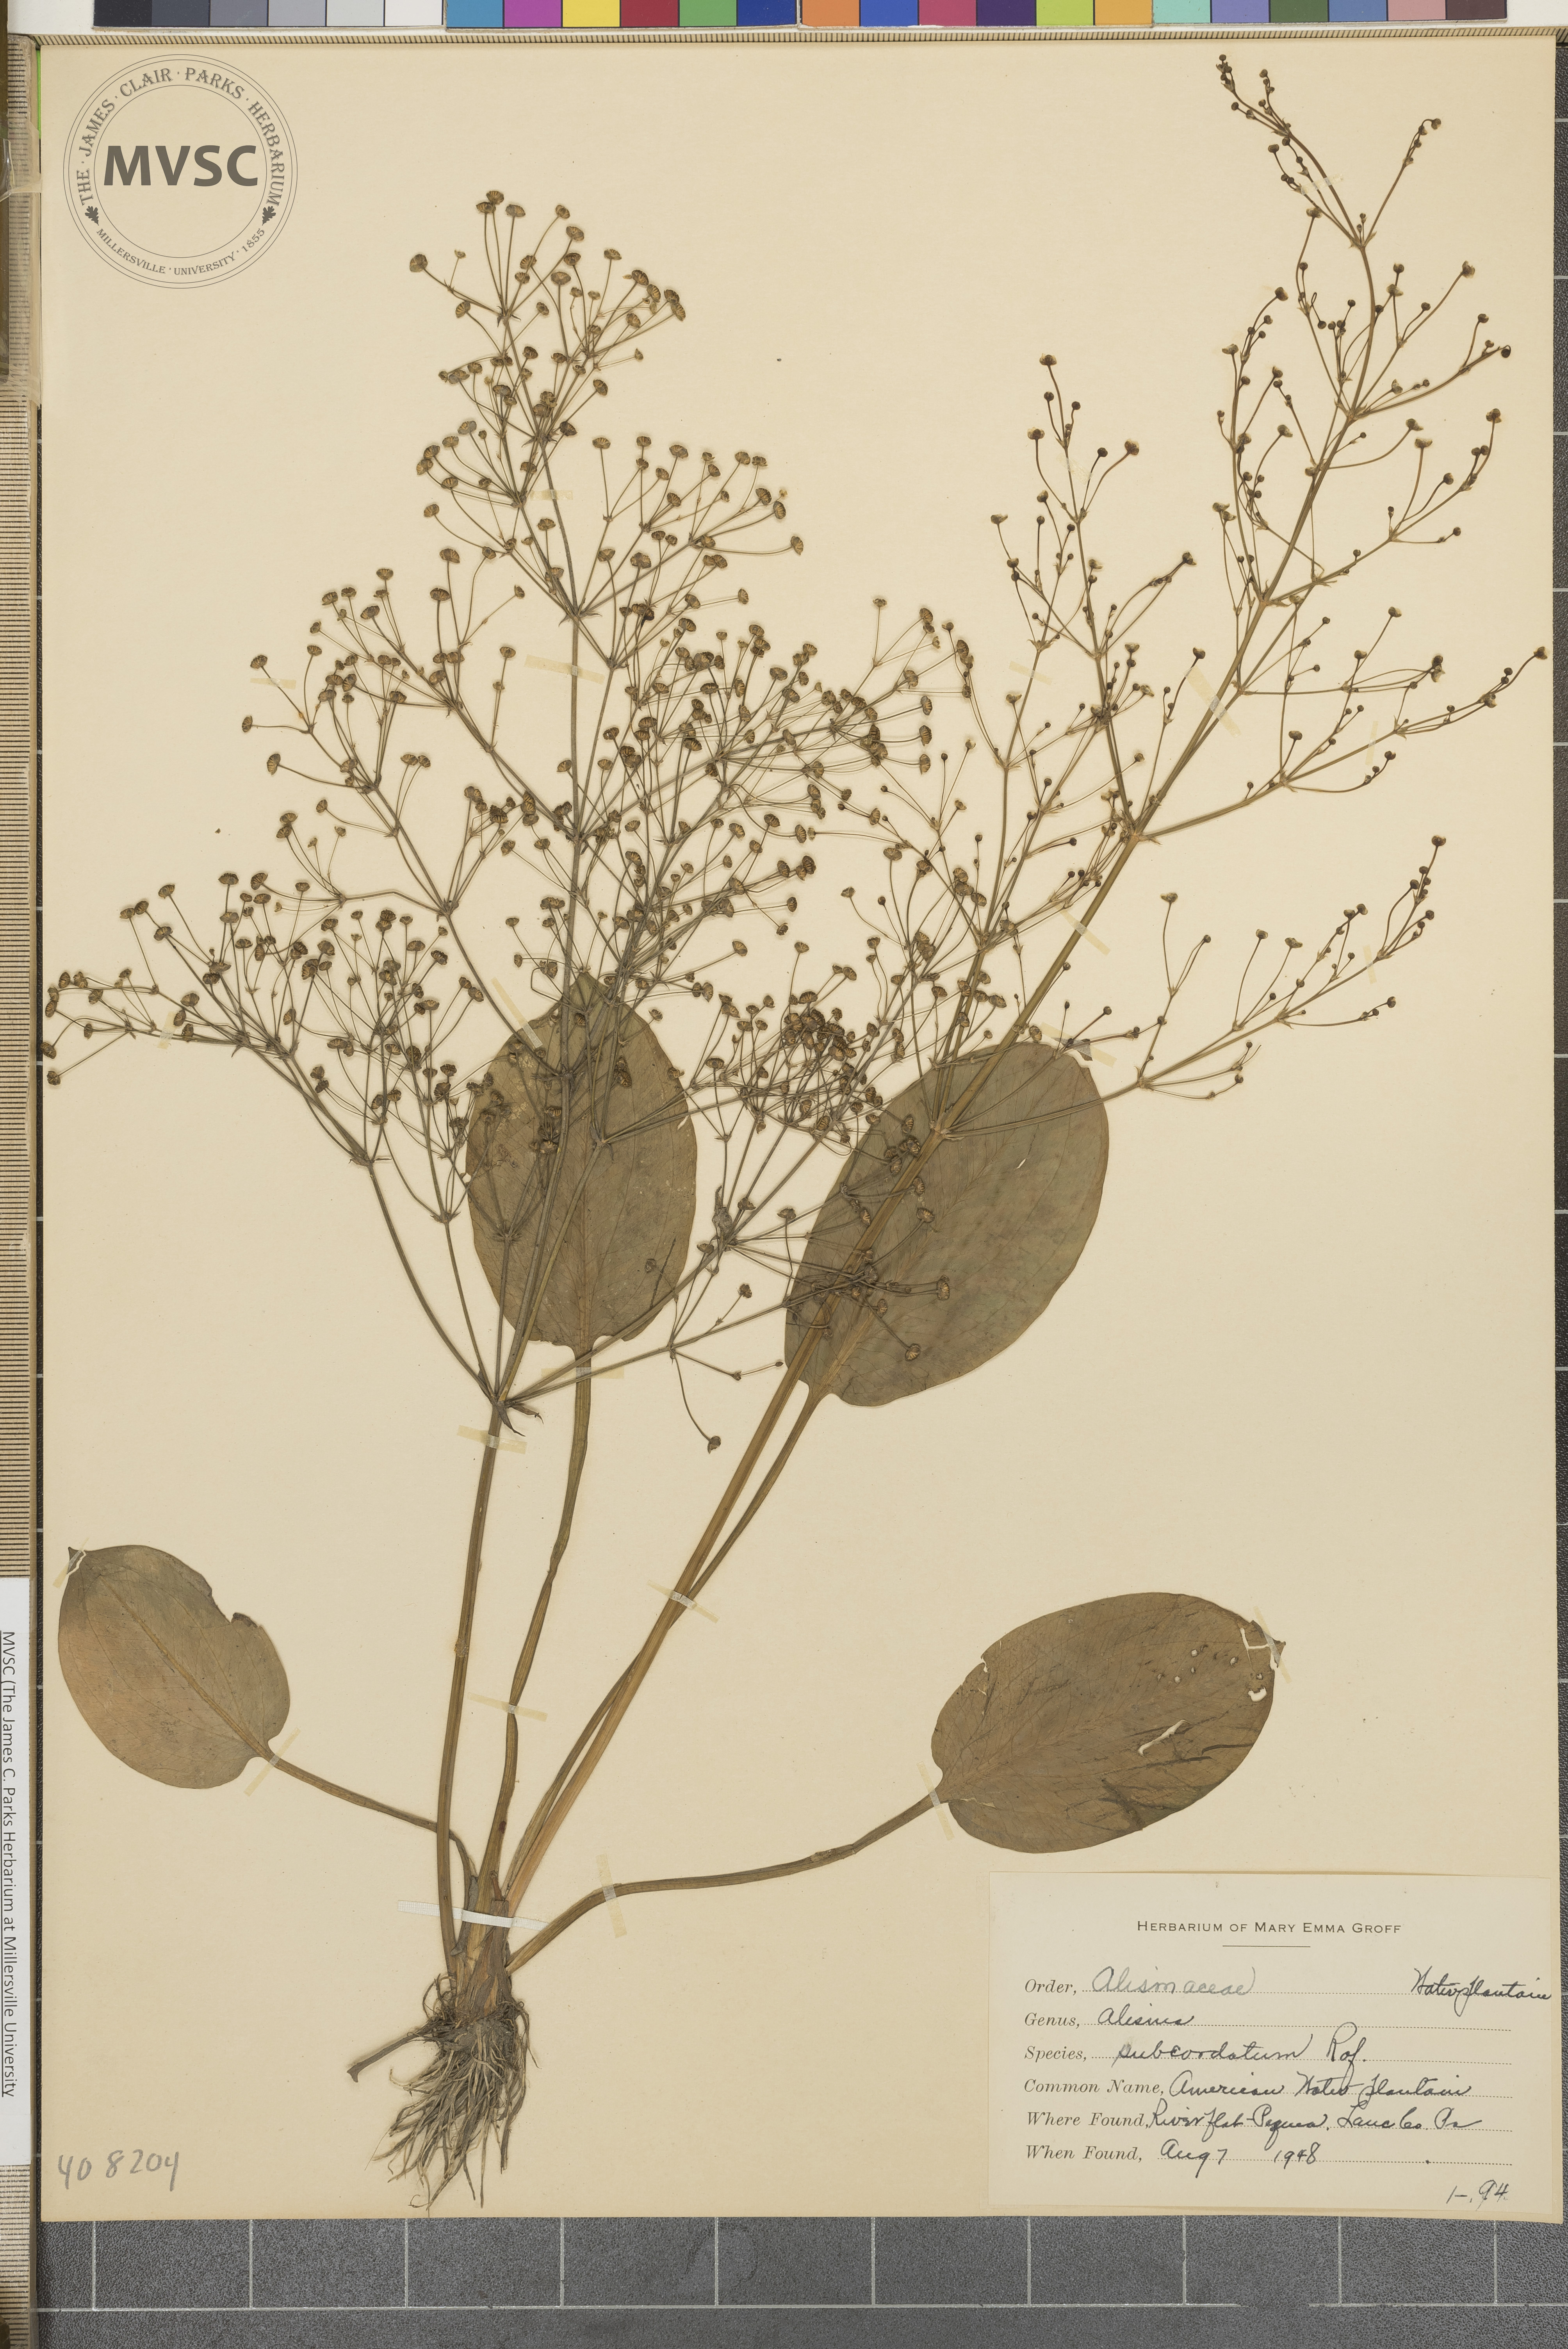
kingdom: Plantae
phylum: Tracheophyta
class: Liliopsida
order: Alismatales
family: Alismataceae
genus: Alisma
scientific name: Alisma subcordatum
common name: Southern water-plantain
